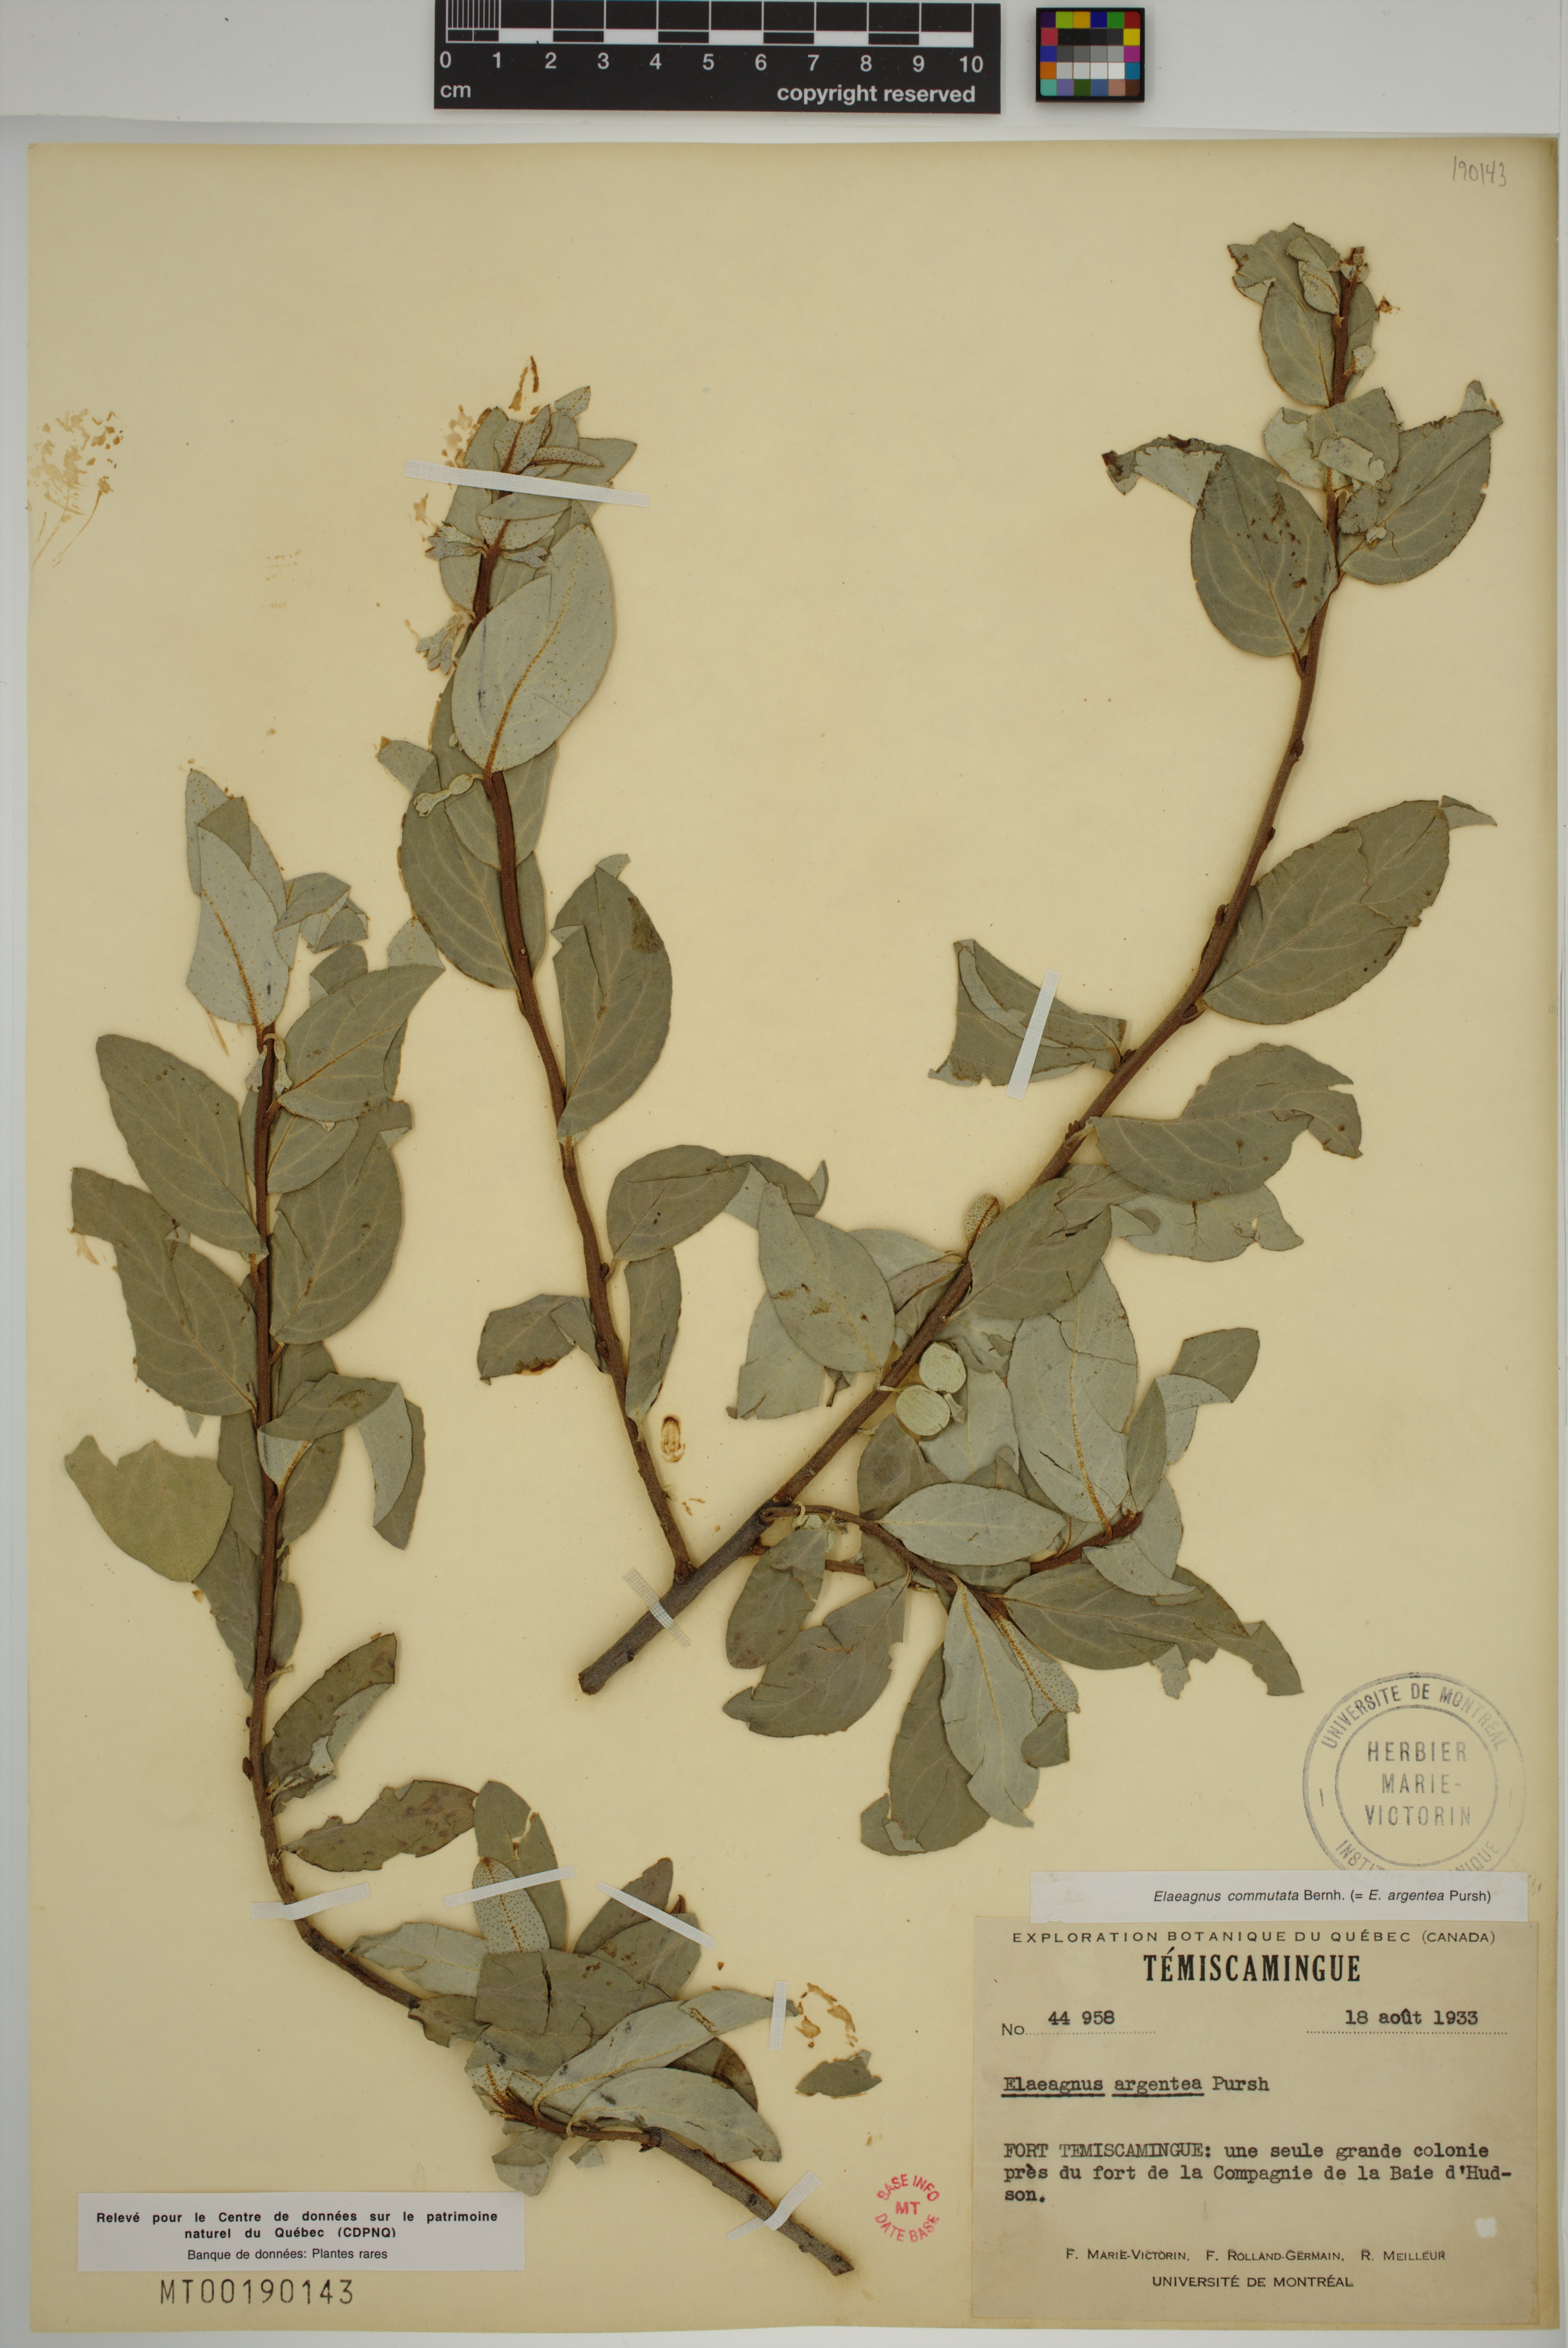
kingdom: Plantae
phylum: Tracheophyta
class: Magnoliopsida
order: Rosales
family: Elaeagnaceae
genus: Elaeagnus
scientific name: Elaeagnus commutata
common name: Silverberry
